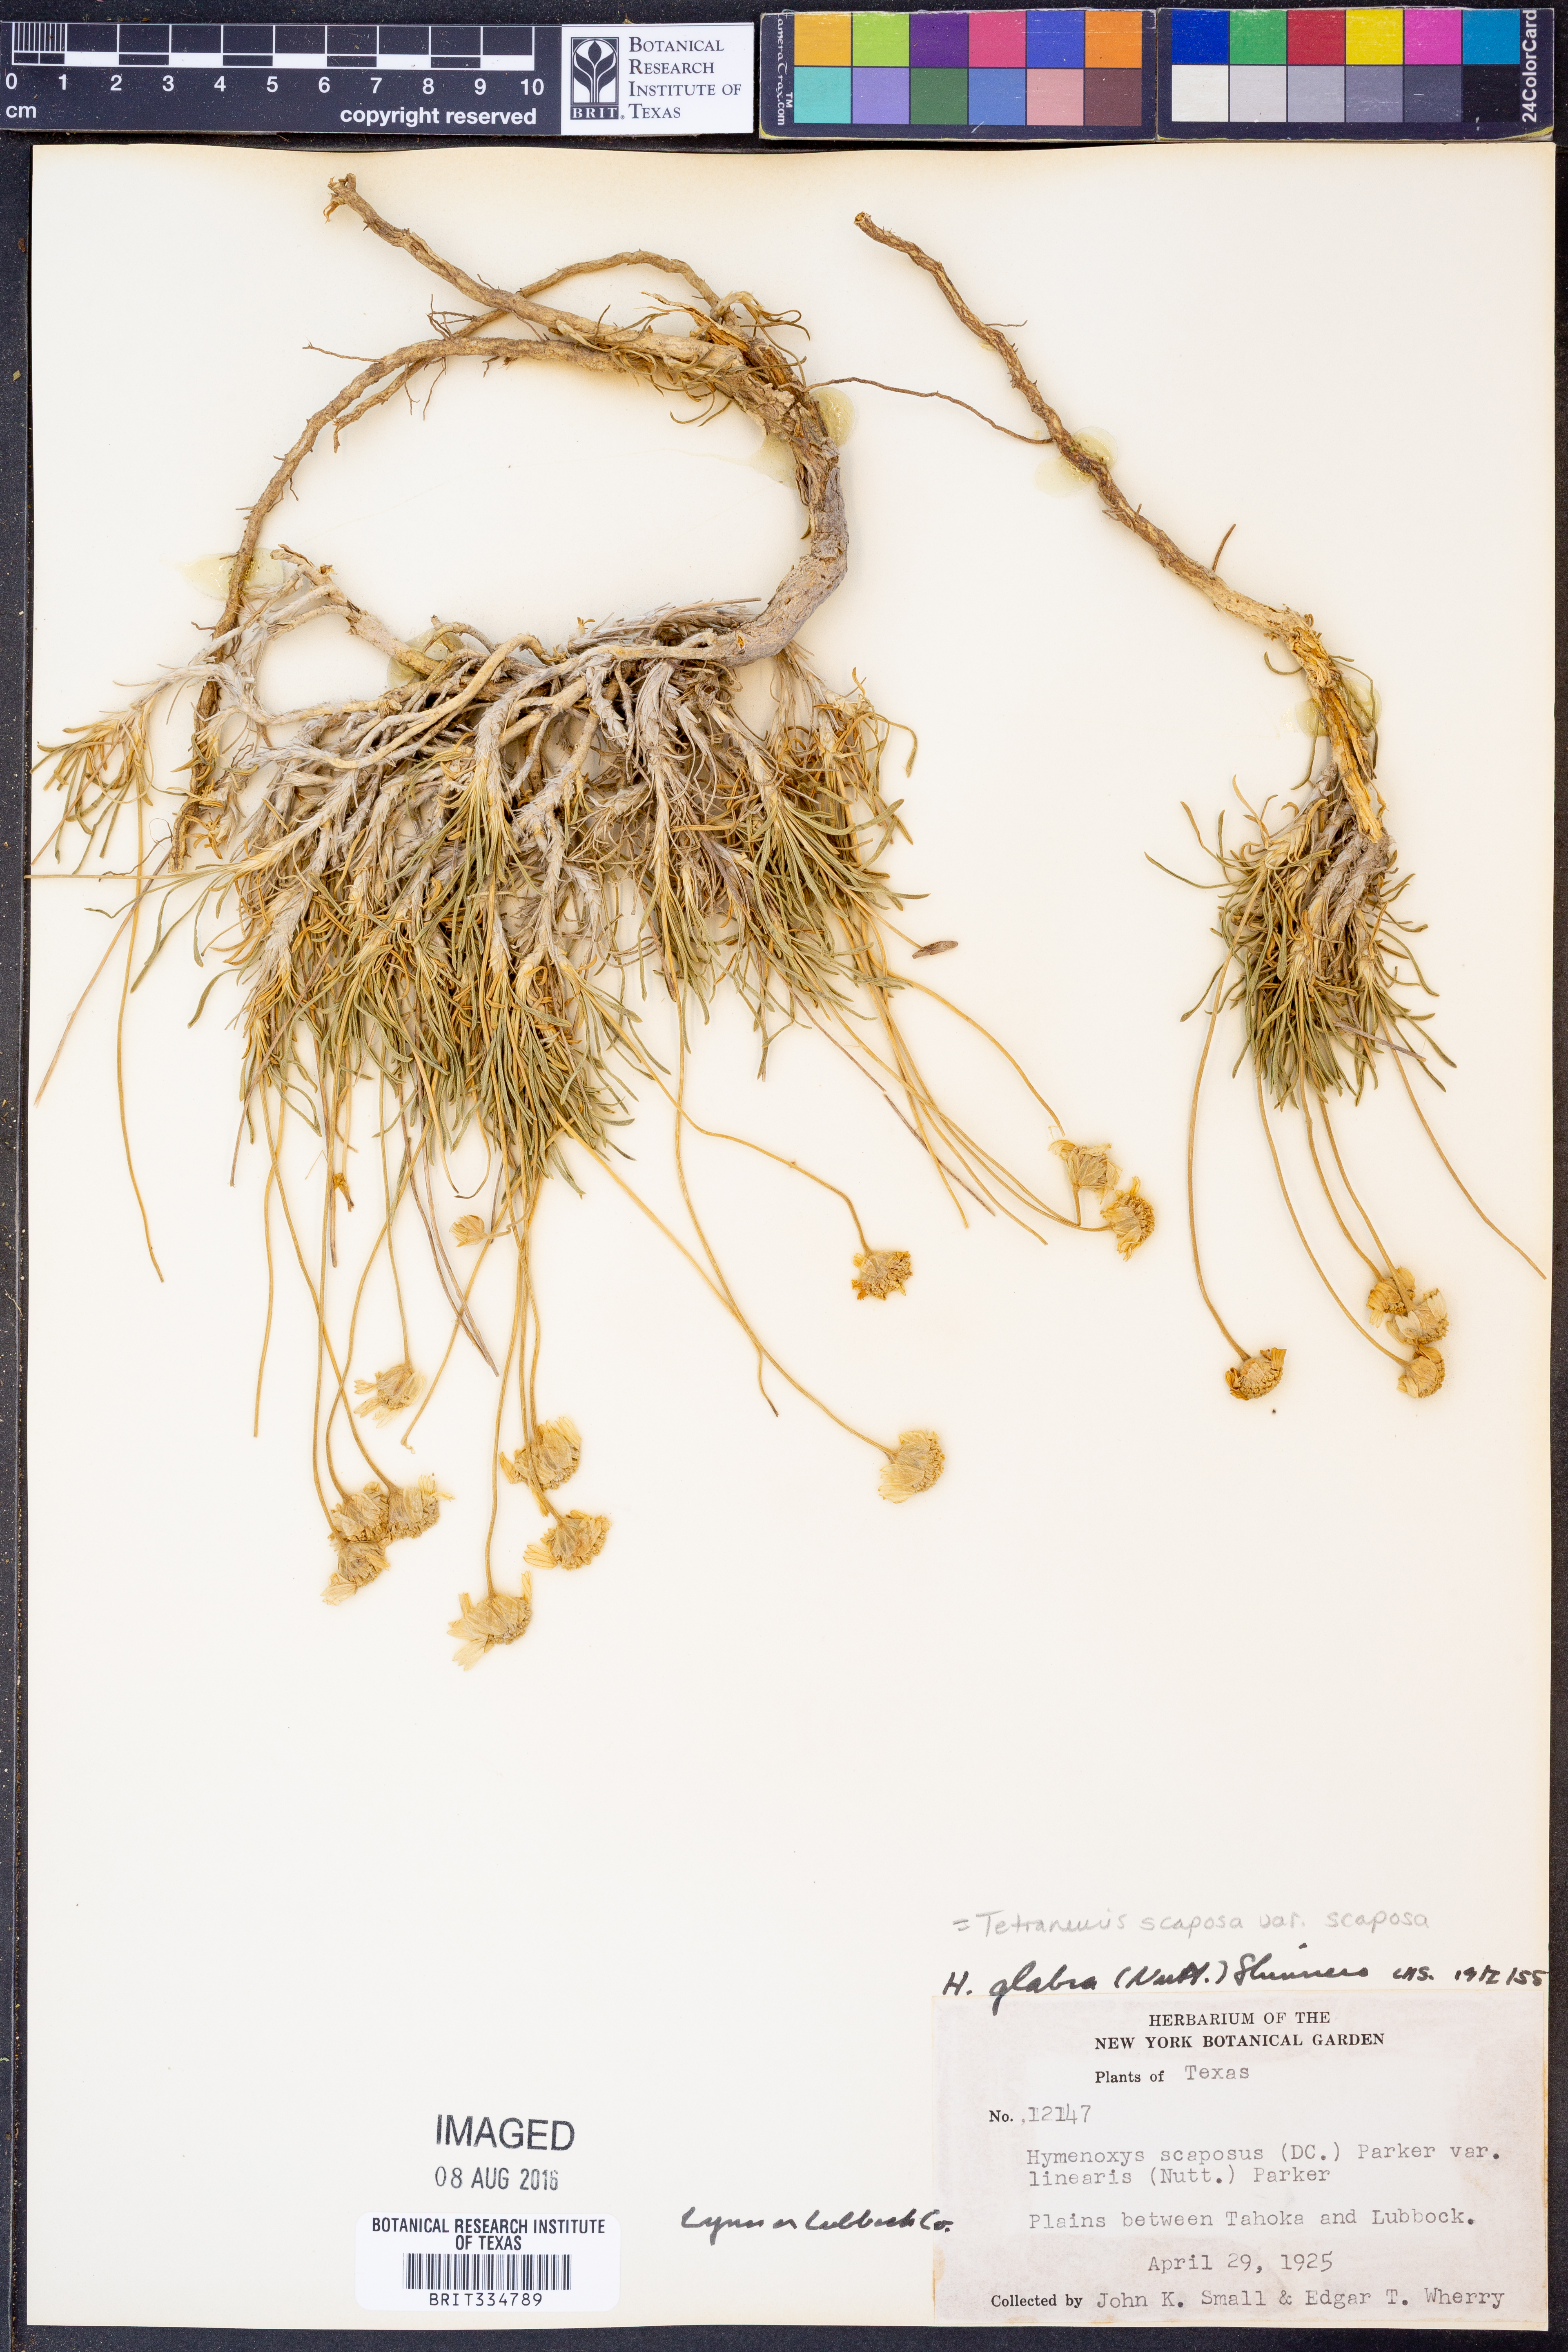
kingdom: Plantae
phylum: Tracheophyta
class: Magnoliopsida
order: Asterales
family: Asteraceae
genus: Tetraneuris
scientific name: Tetraneuris scaposa
